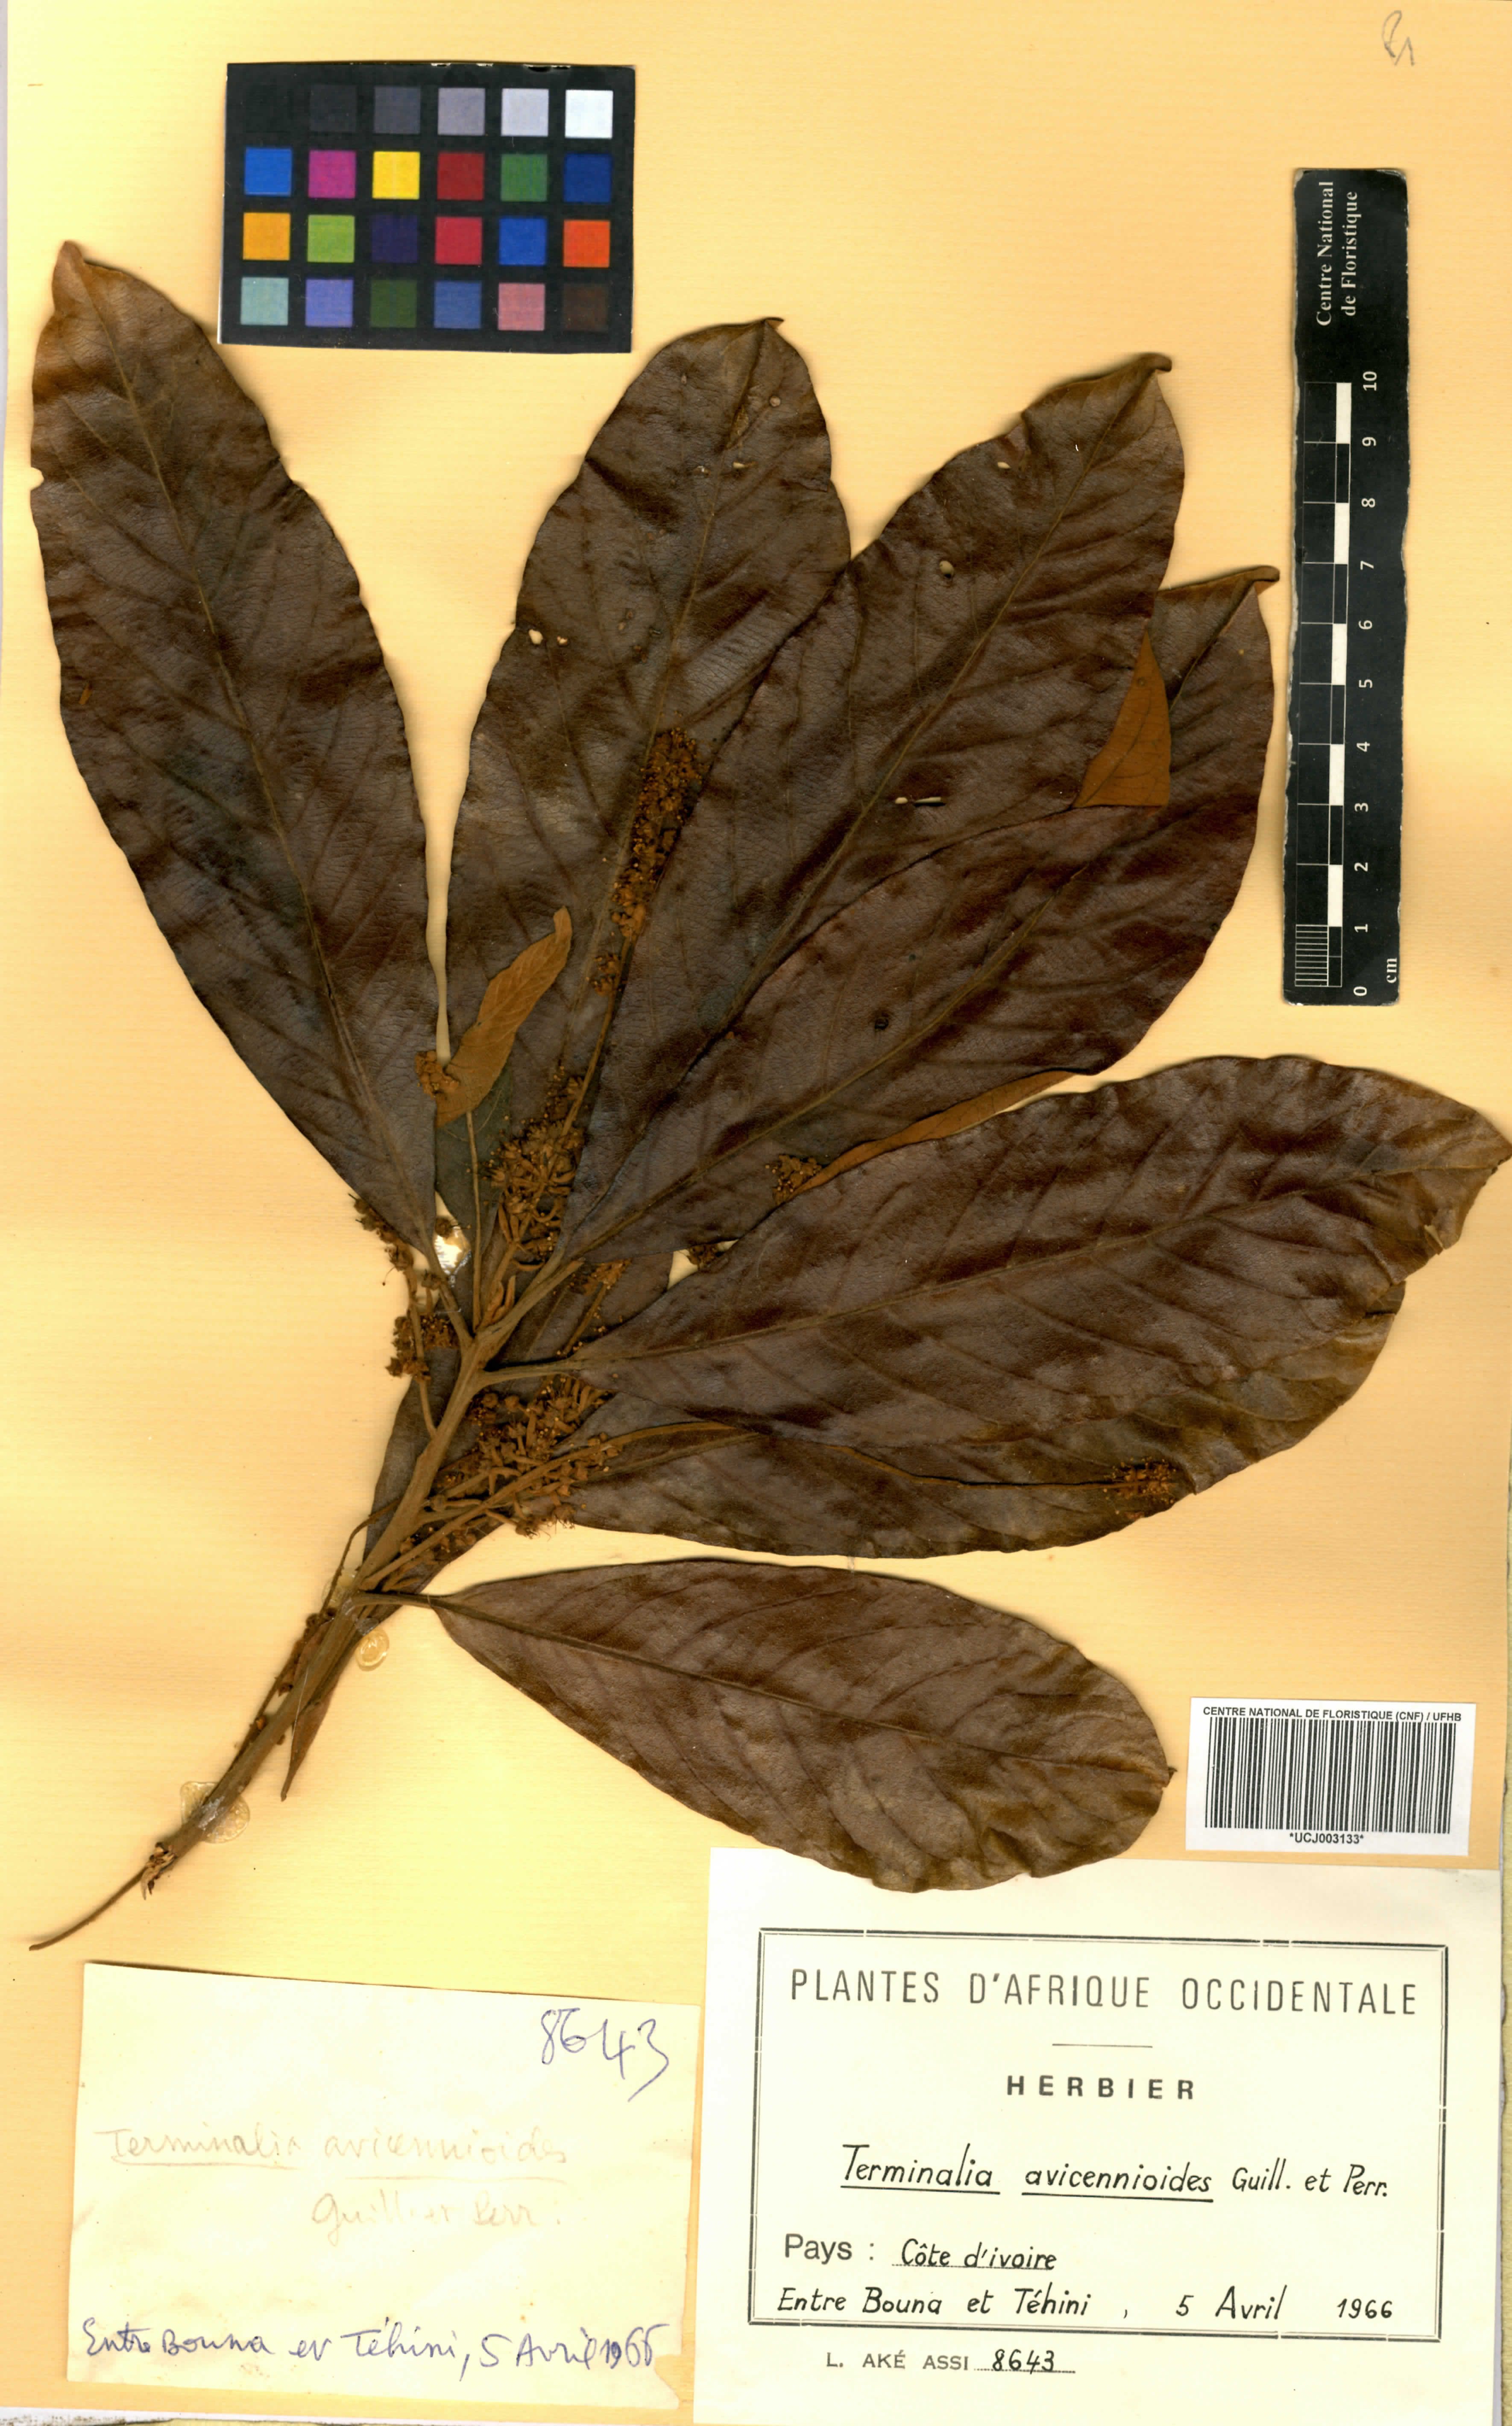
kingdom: Plantae
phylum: Tracheophyta
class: Magnoliopsida
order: Myrtales
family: Combretaceae
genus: Terminalia
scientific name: Terminalia avicennioides
